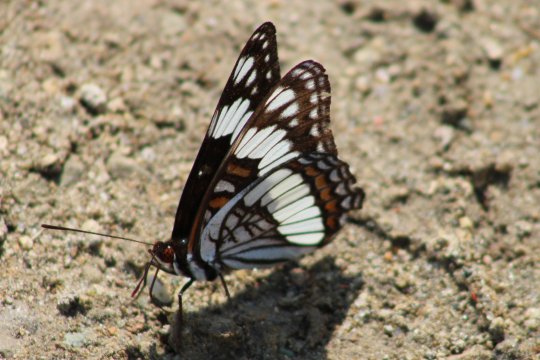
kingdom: Animalia
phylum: Arthropoda
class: Insecta
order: Lepidoptera
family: Nymphalidae
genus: Limenitis
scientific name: Limenitis weidemeyerii
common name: Weidemeyer's Admiral
